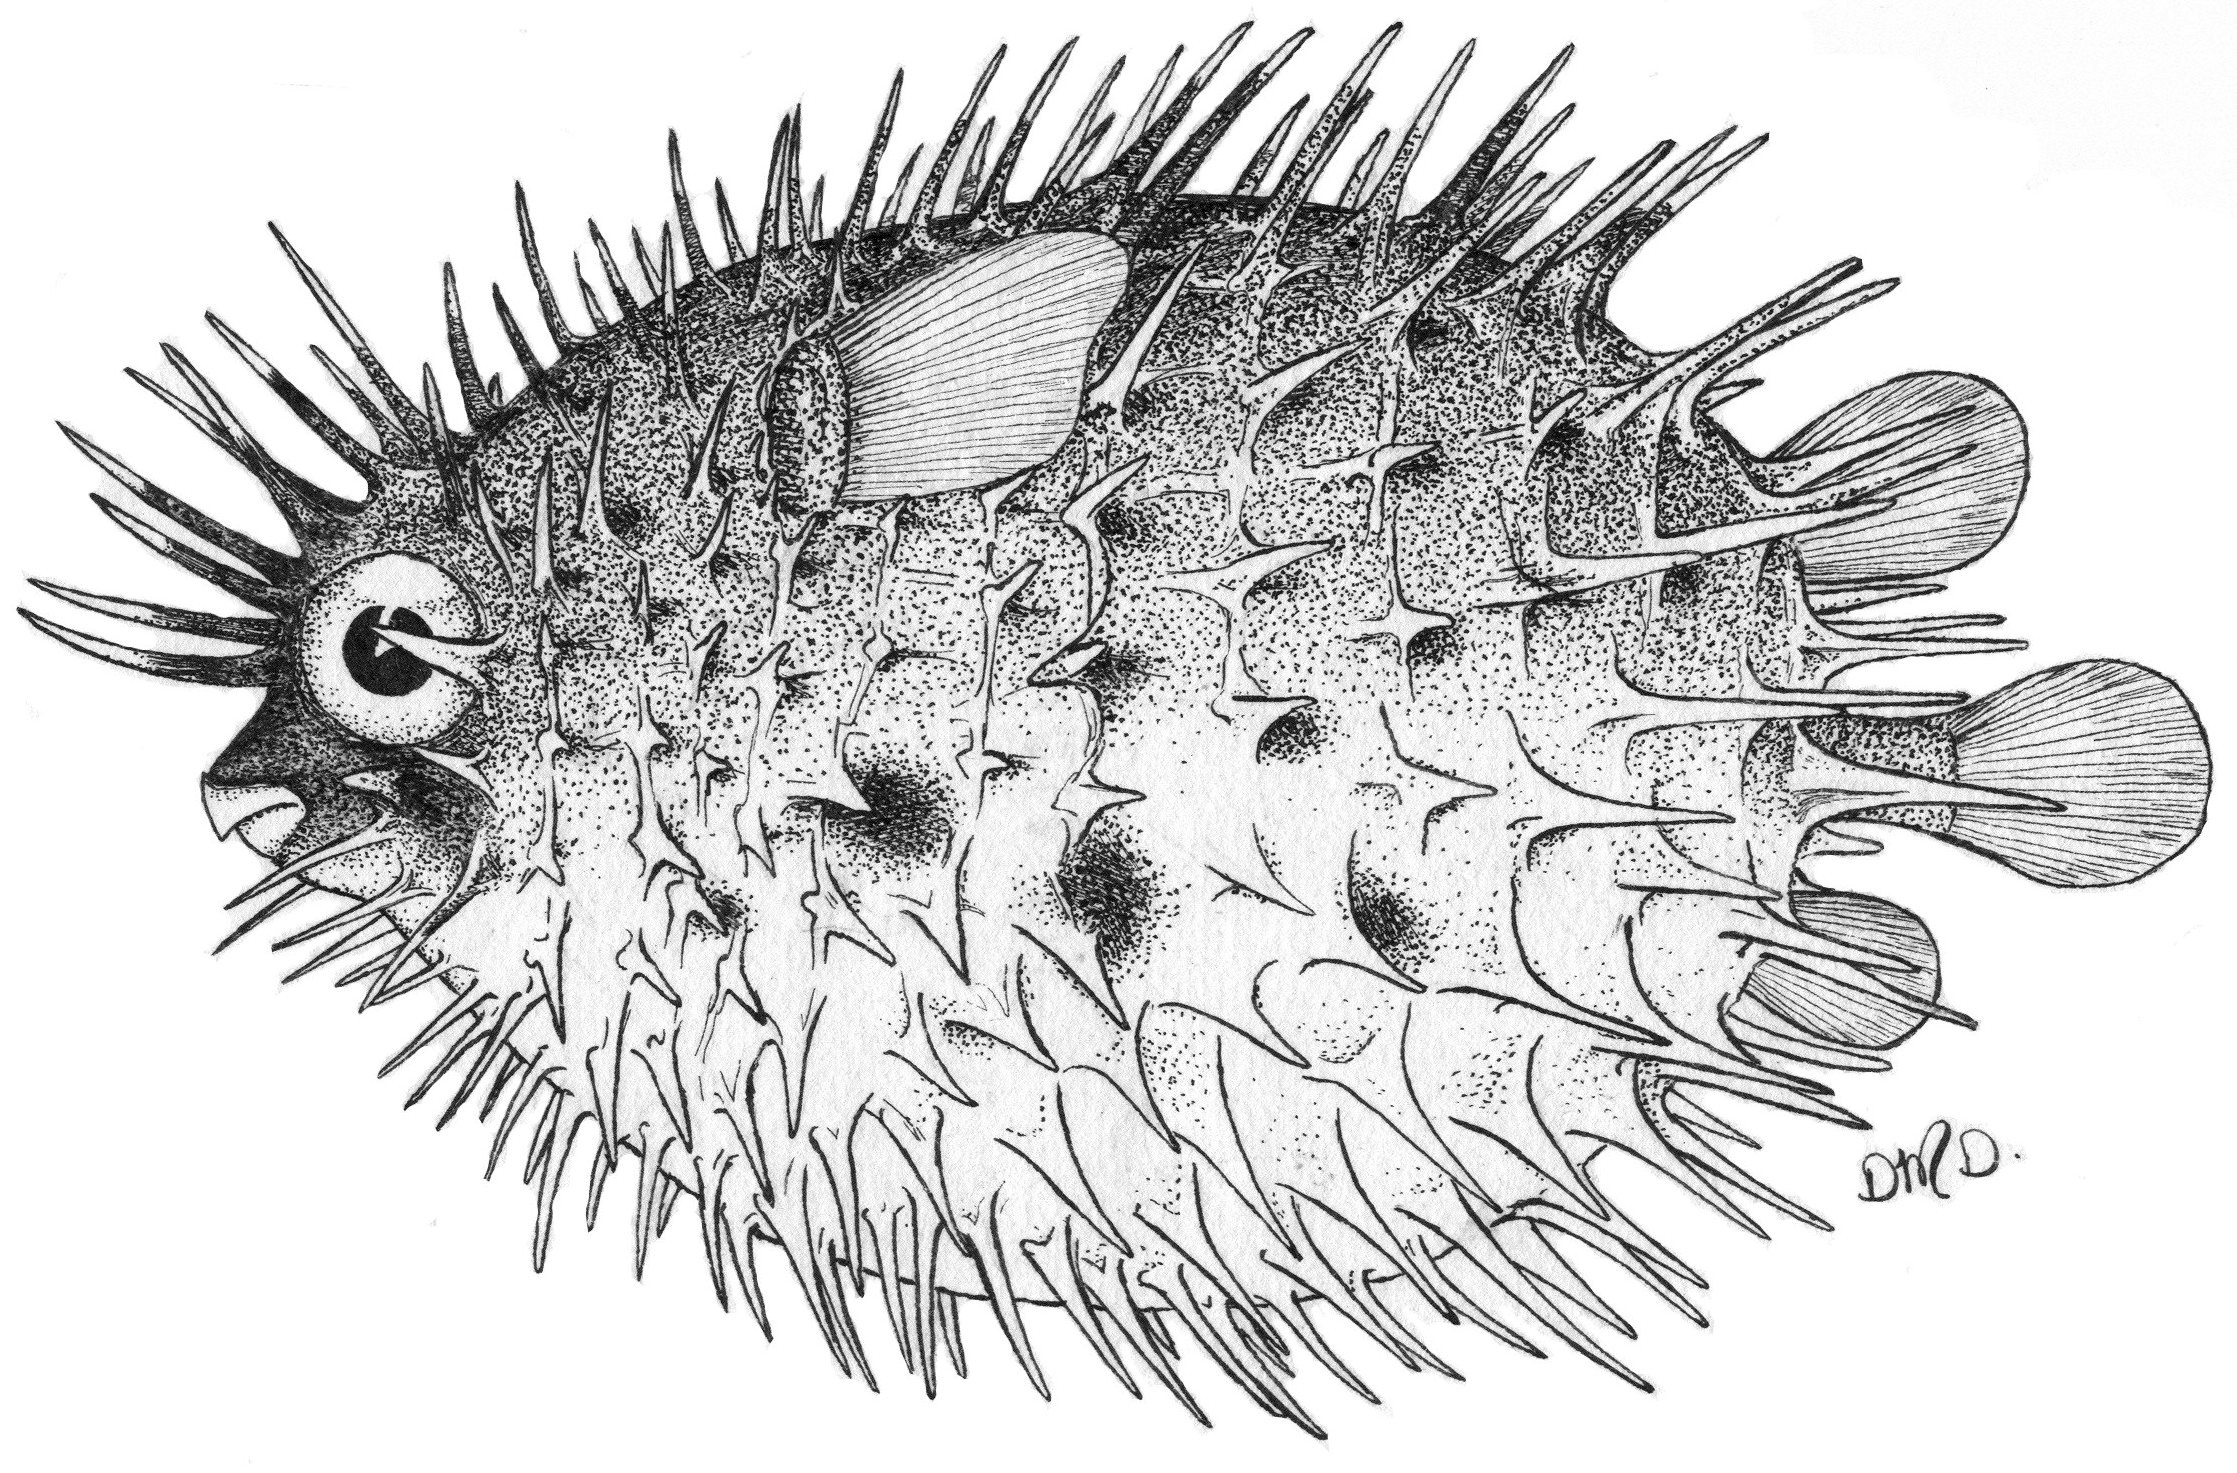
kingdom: Animalia
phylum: Chordata
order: Tetraodontiformes
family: Diodontidae
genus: Diodon
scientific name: Diodon holocanthus
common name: Balloonfish
